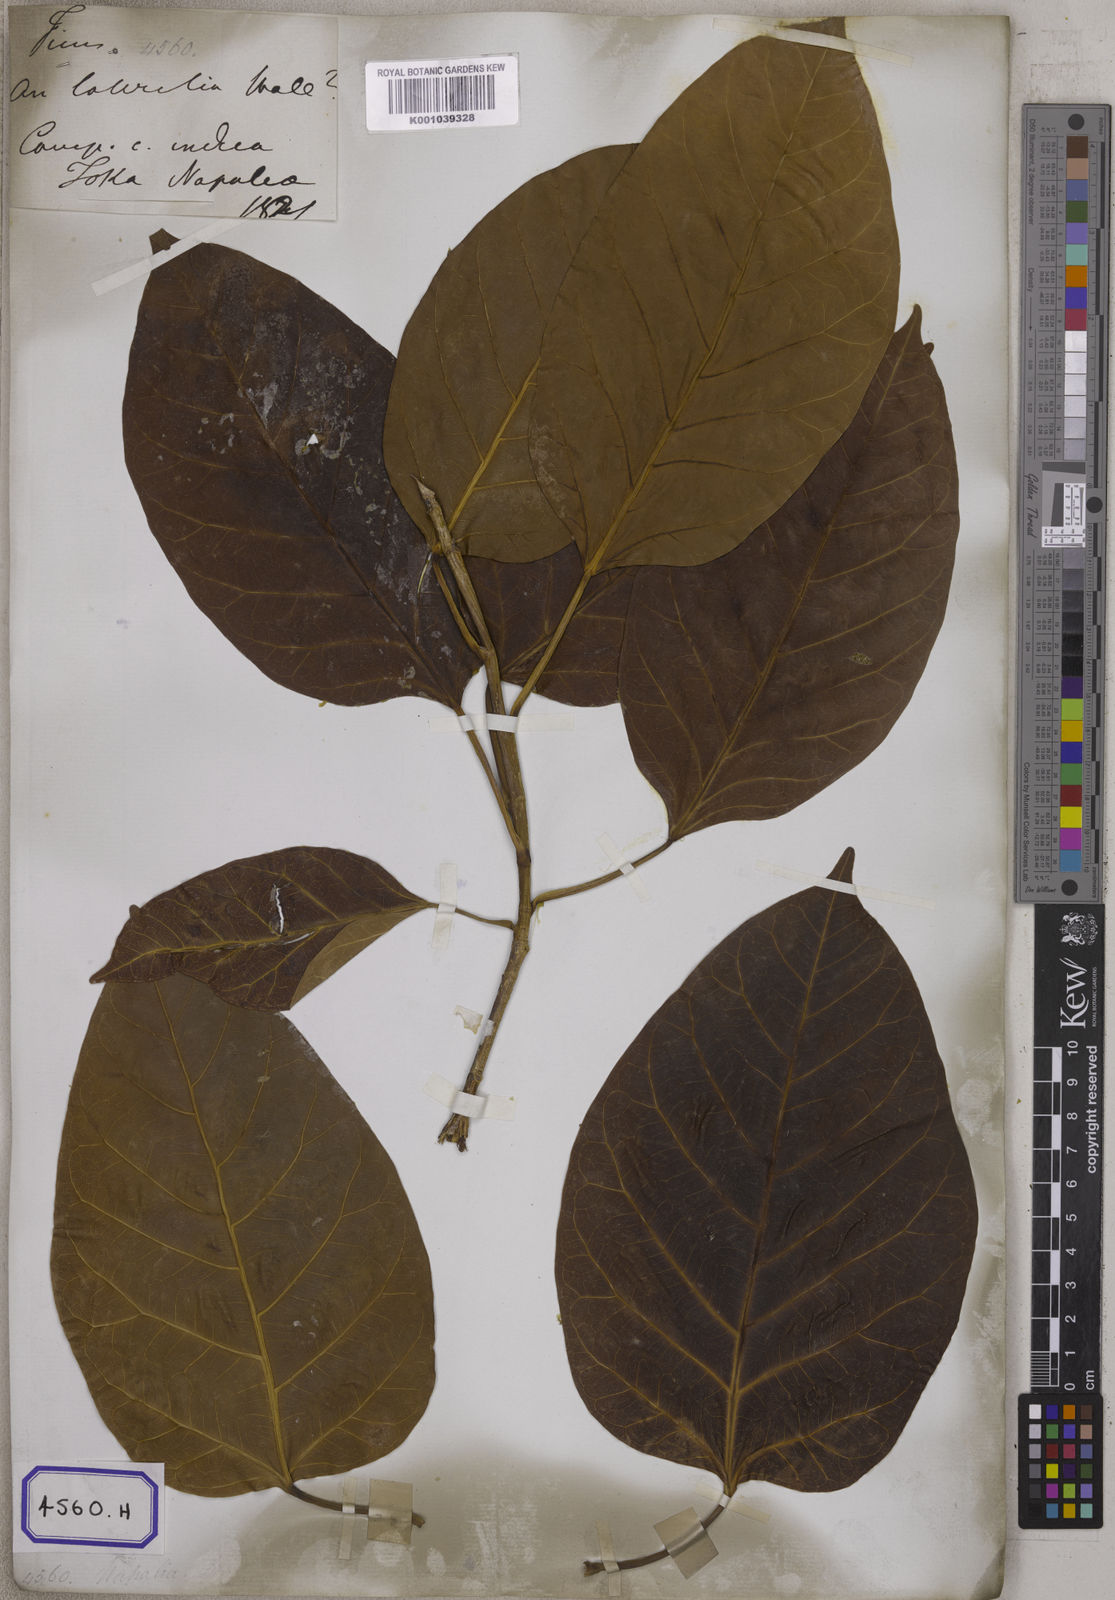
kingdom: Plantae
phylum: Tracheophyta
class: Magnoliopsida
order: Rosales
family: Moraceae
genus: Ficus
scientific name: Ficus
